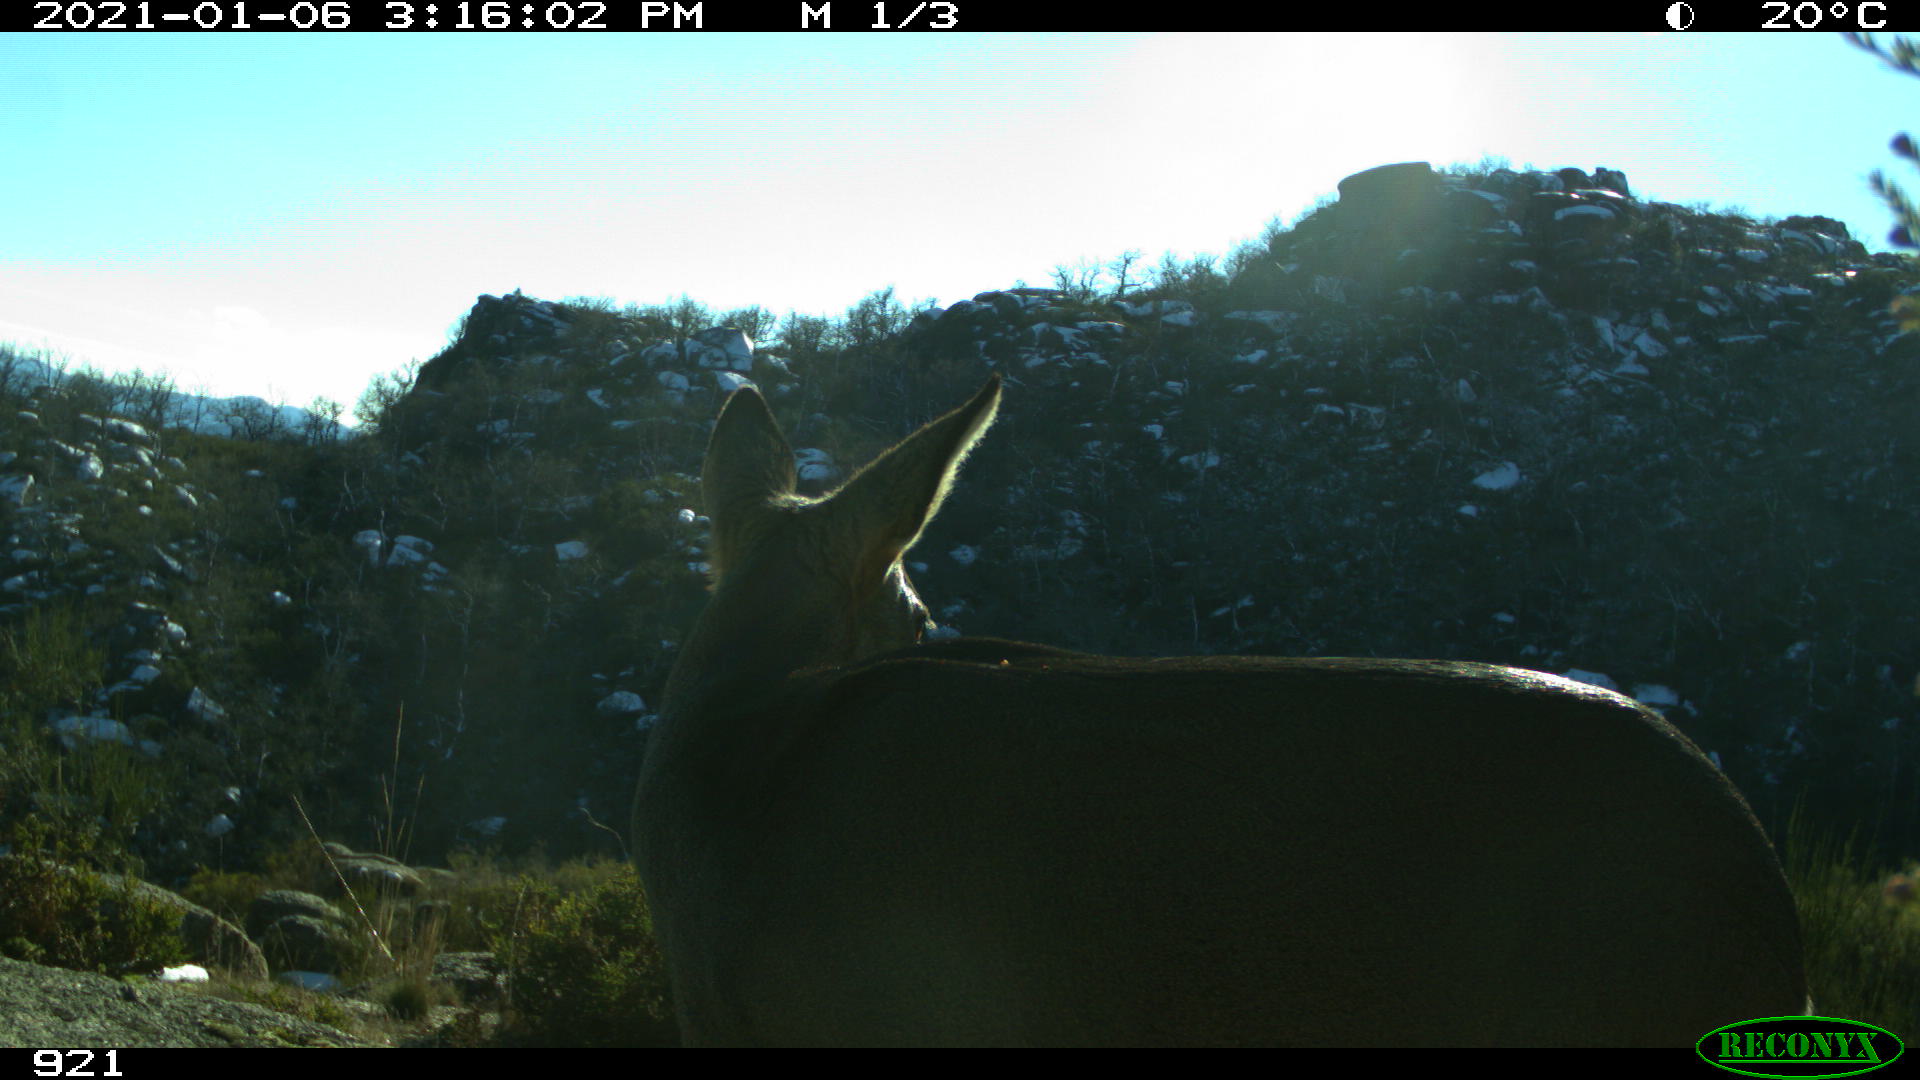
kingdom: Animalia
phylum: Chordata
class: Mammalia
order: Artiodactyla
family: Cervidae
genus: Capreolus
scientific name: Capreolus capreolus
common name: Western roe deer
